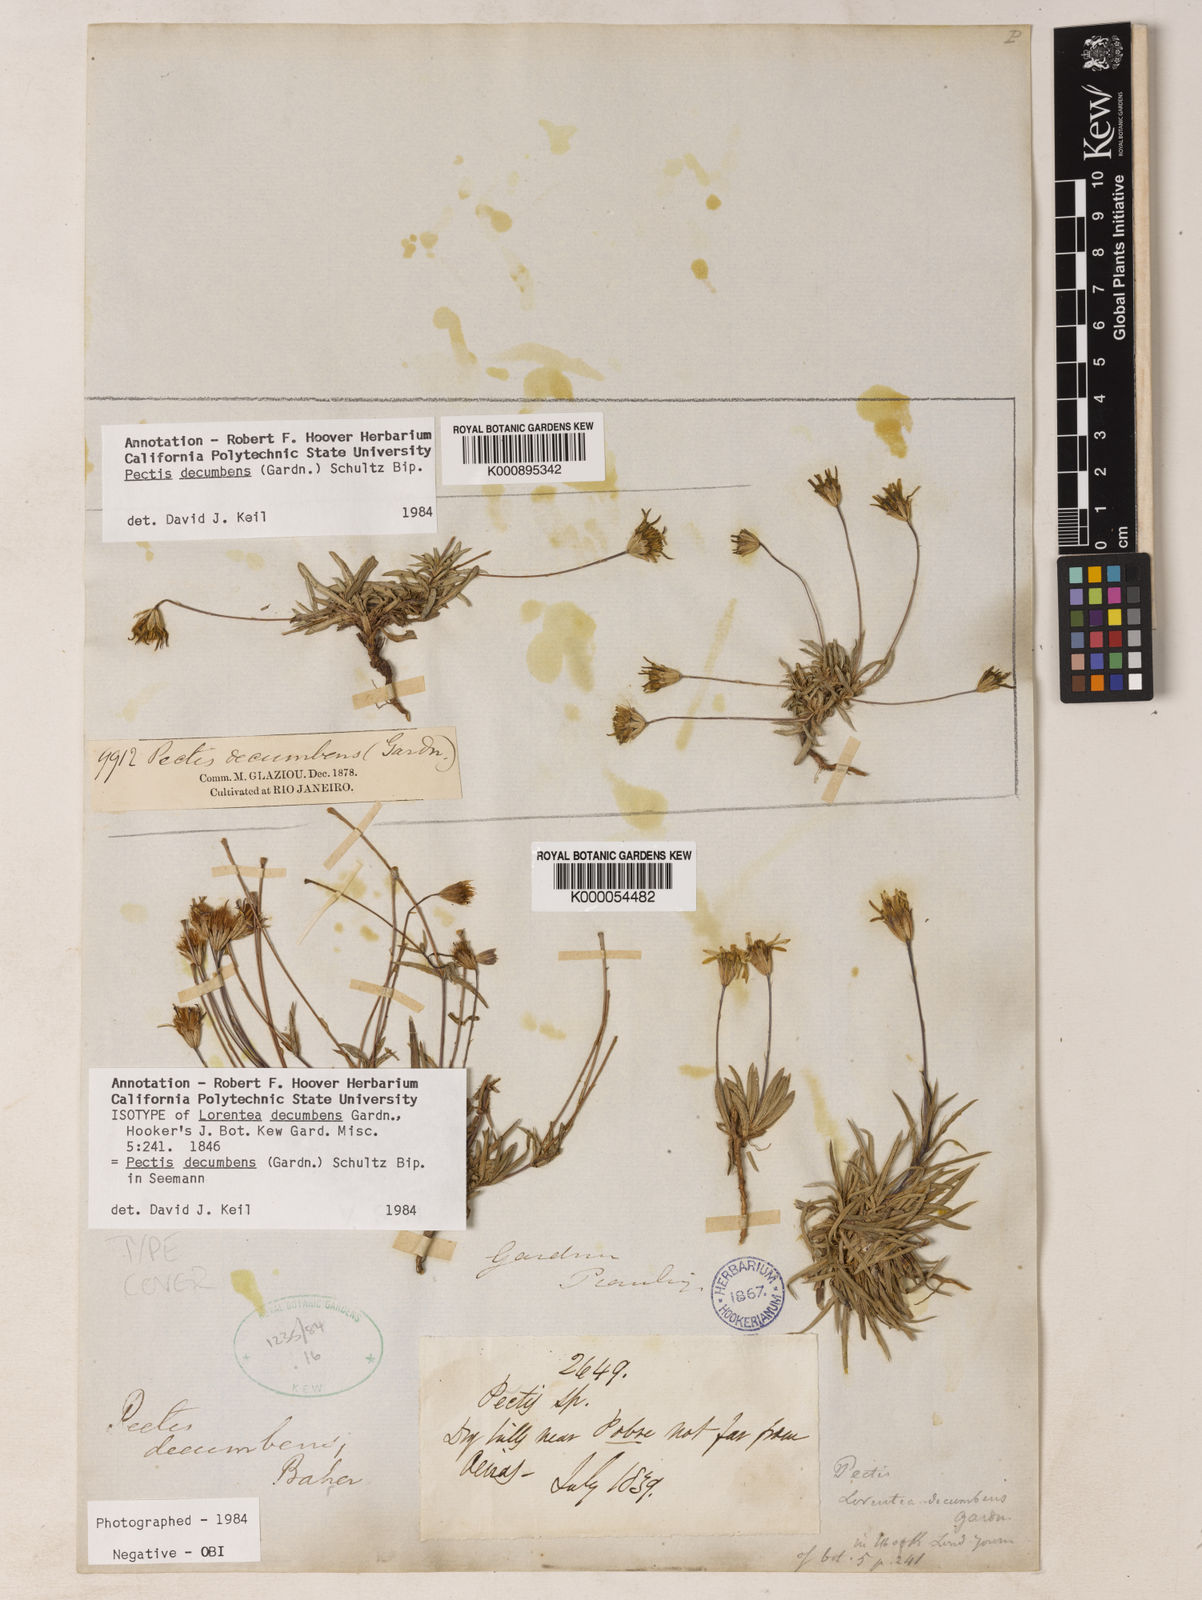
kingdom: Plantae
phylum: Tracheophyta
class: Magnoliopsida
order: Asterales
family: Asteraceae
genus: Pectis
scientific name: Pectis decumbens
